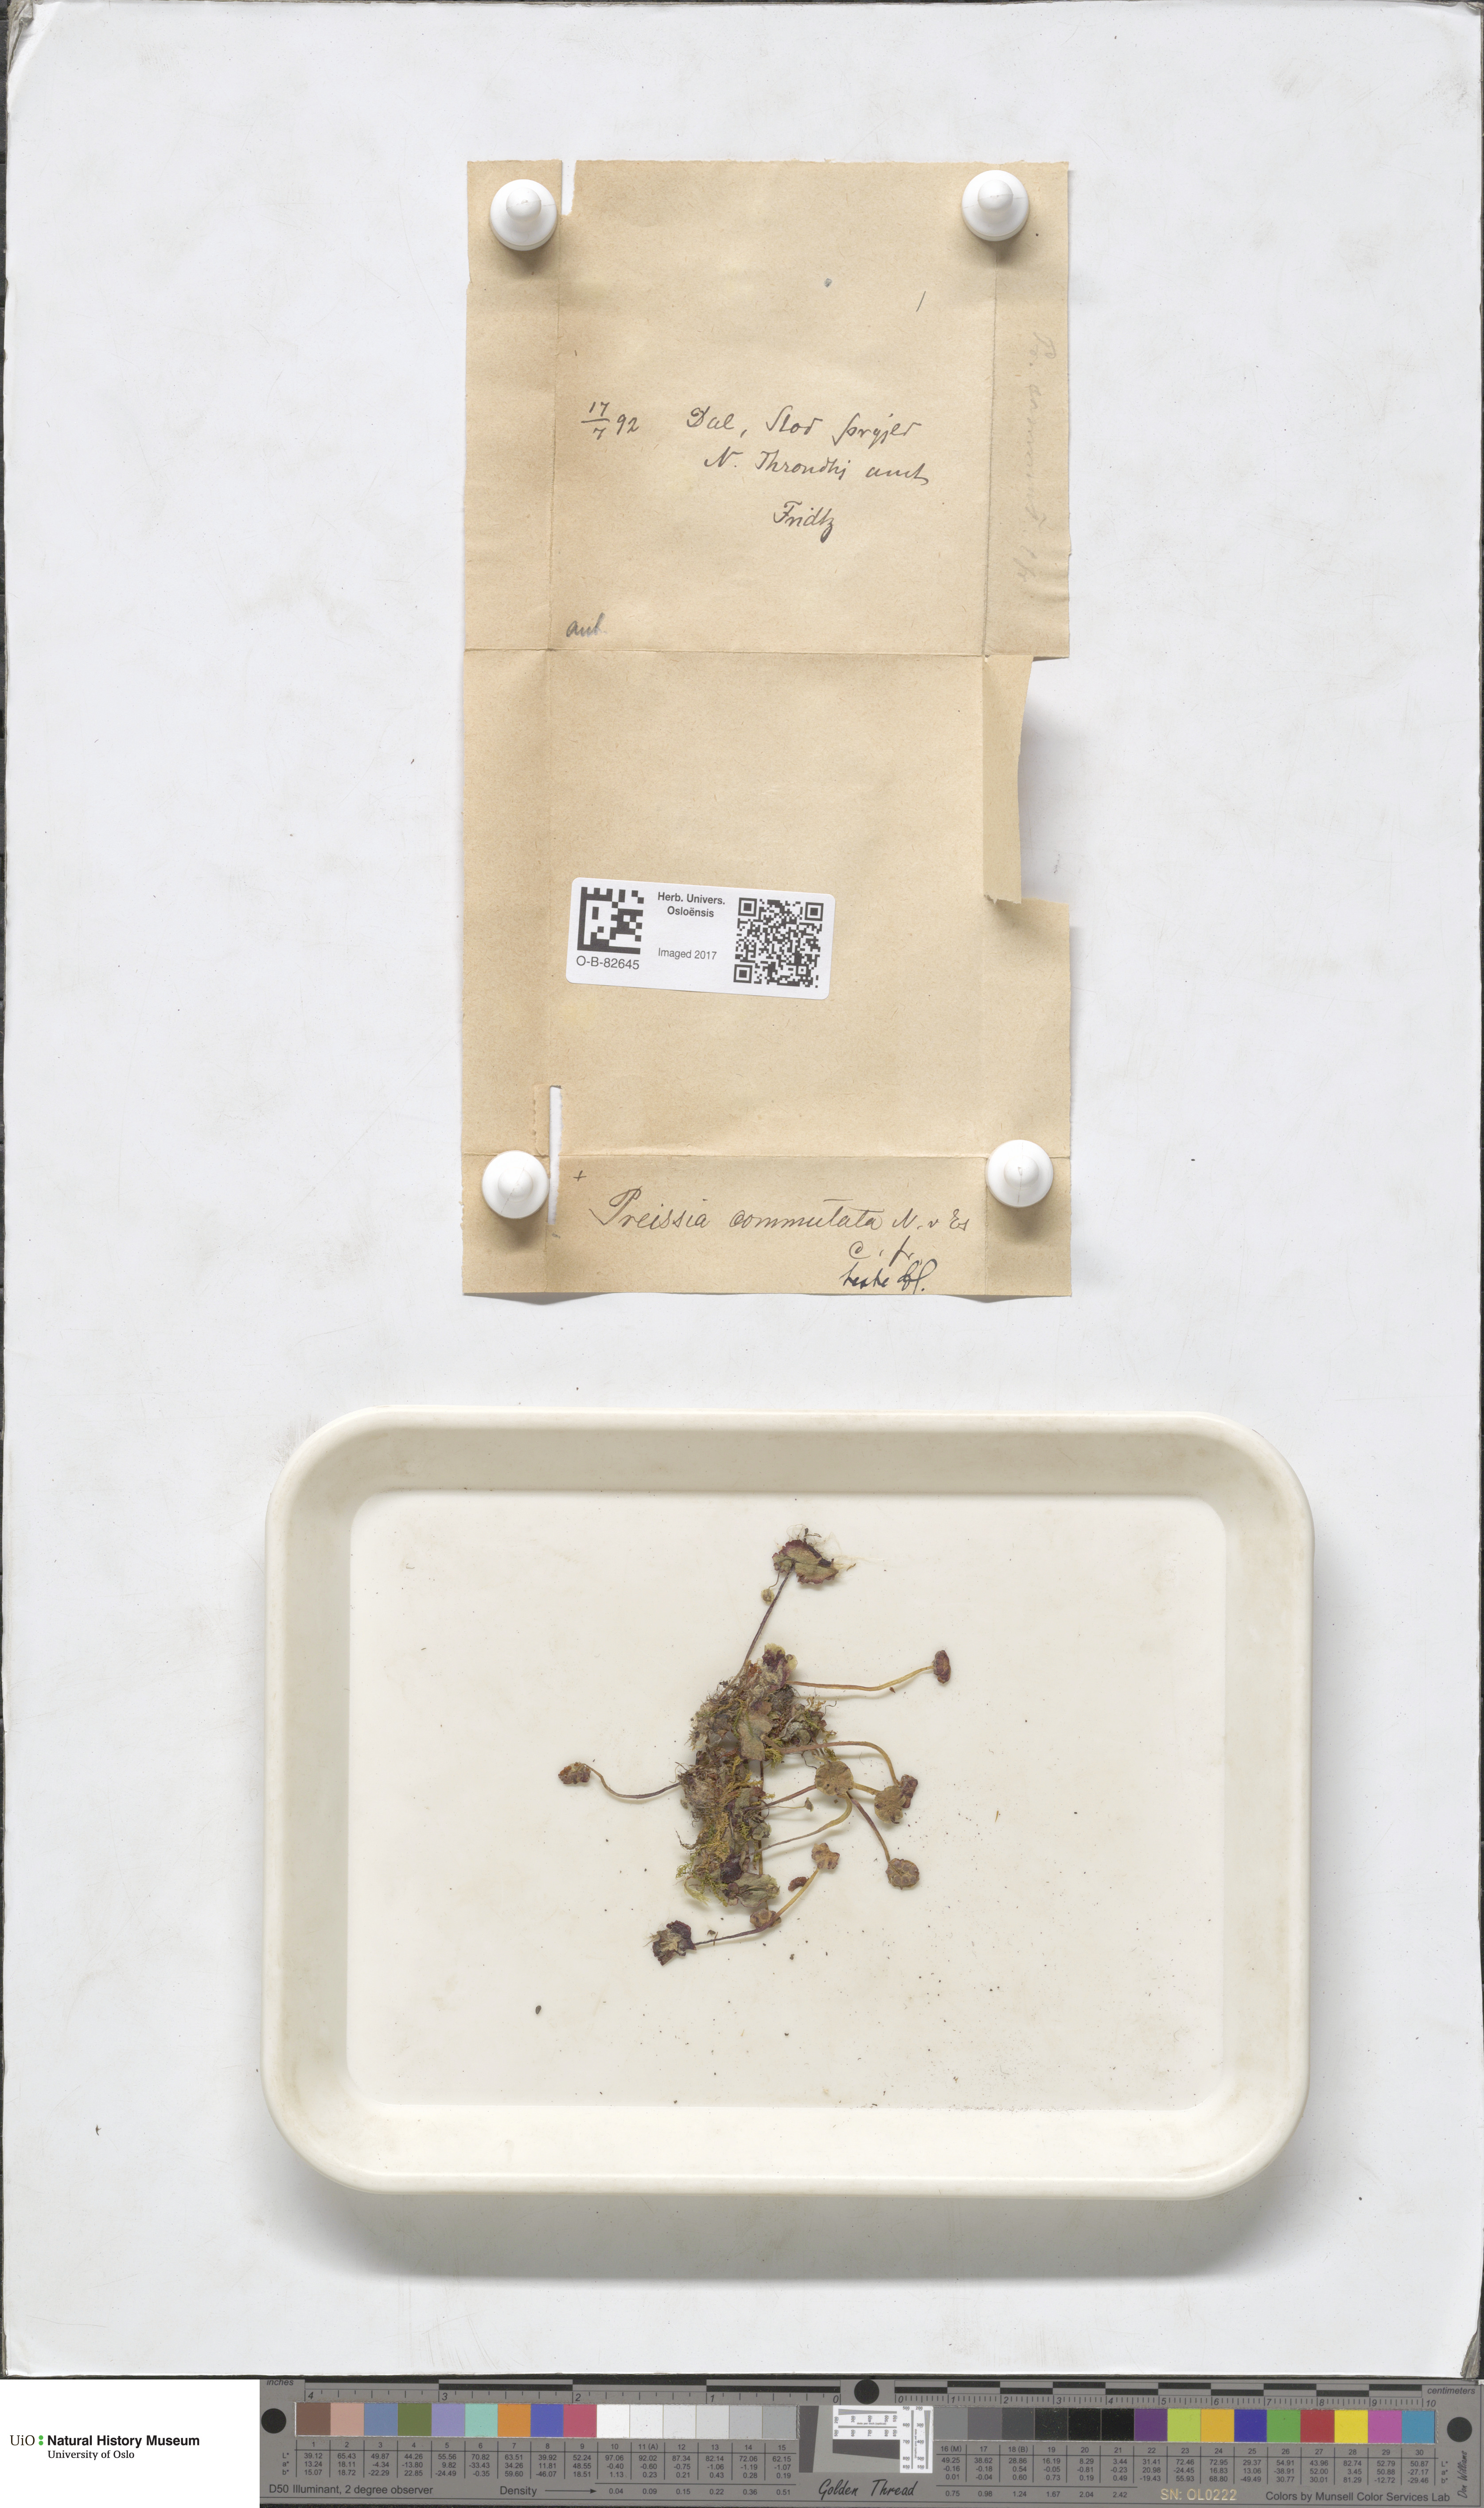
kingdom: Plantae
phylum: Marchantiophyta
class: Marchantiopsida
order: Marchantiales
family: Marchantiaceae
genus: Marchantia
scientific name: Marchantia quadrata
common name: Narrow mushroom-headed liverwort
